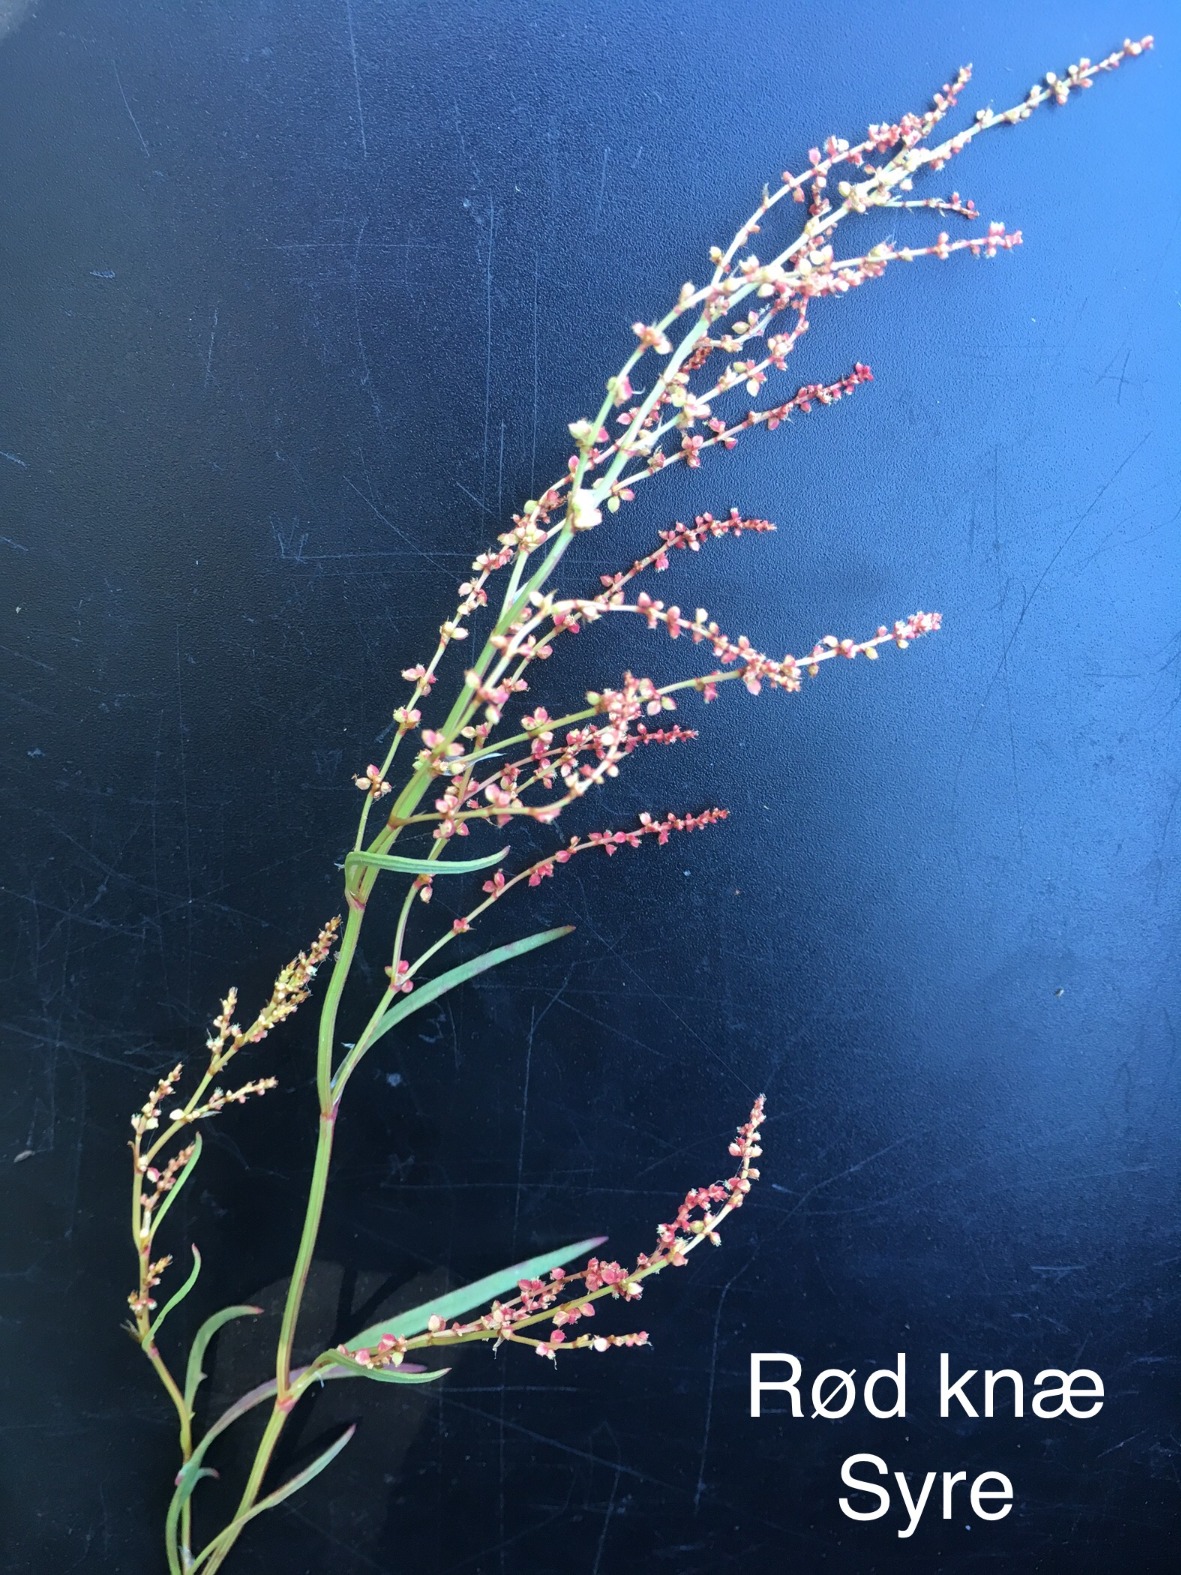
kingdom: Plantae
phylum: Tracheophyta
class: Magnoliopsida
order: Caryophyllales
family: Polygonaceae
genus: Rumex
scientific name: Rumex acetosella
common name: Rødknæ
